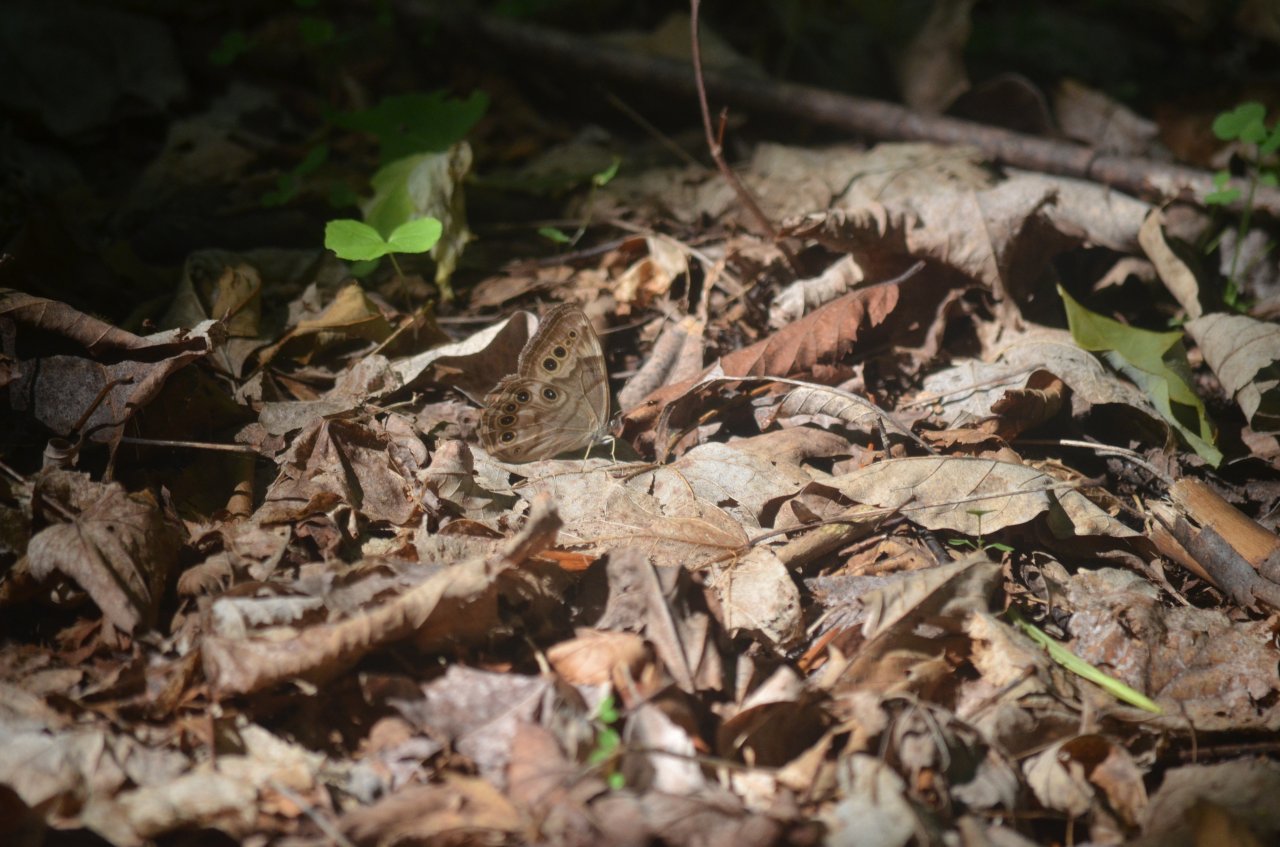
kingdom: Animalia
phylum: Arthropoda
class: Insecta
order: Lepidoptera
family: Nymphalidae
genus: Lethe
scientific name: Lethe anthedon
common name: Northern Pearly-Eye
